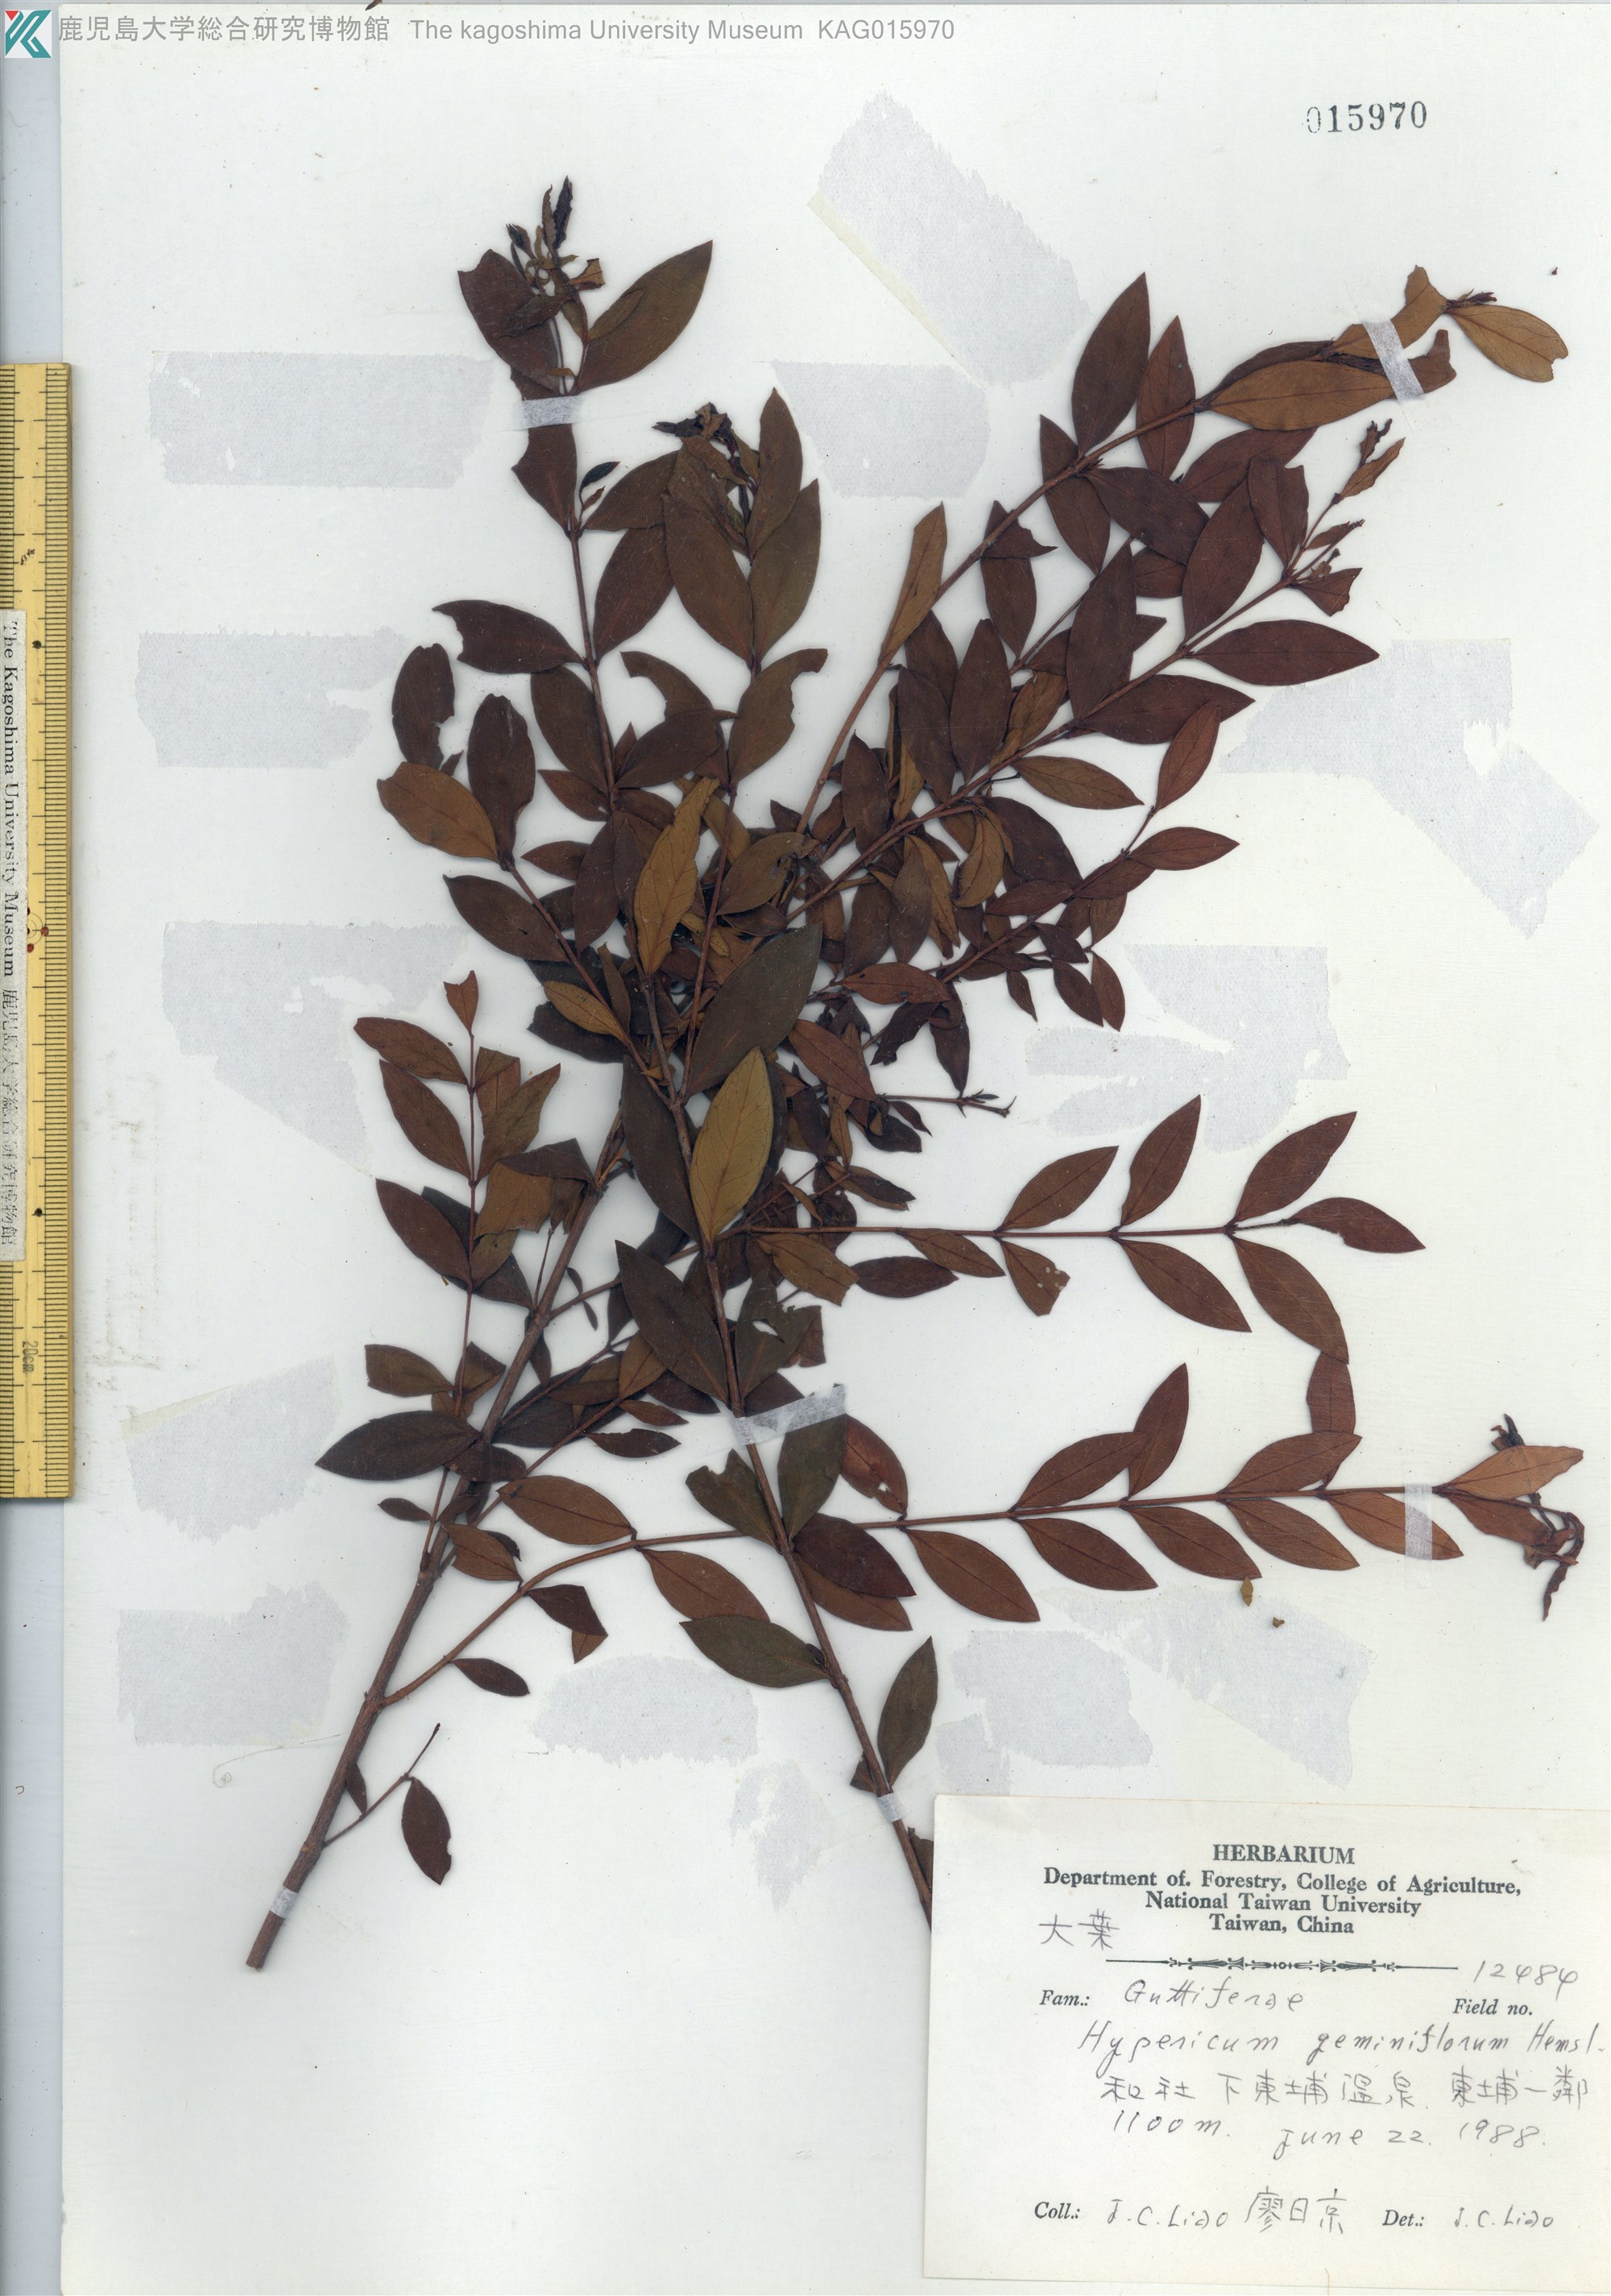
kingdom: Plantae
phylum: Tracheophyta
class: Magnoliopsida
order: Malpighiales
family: Hypericaceae
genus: Hypericum
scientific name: Hypericum geminiflorum
